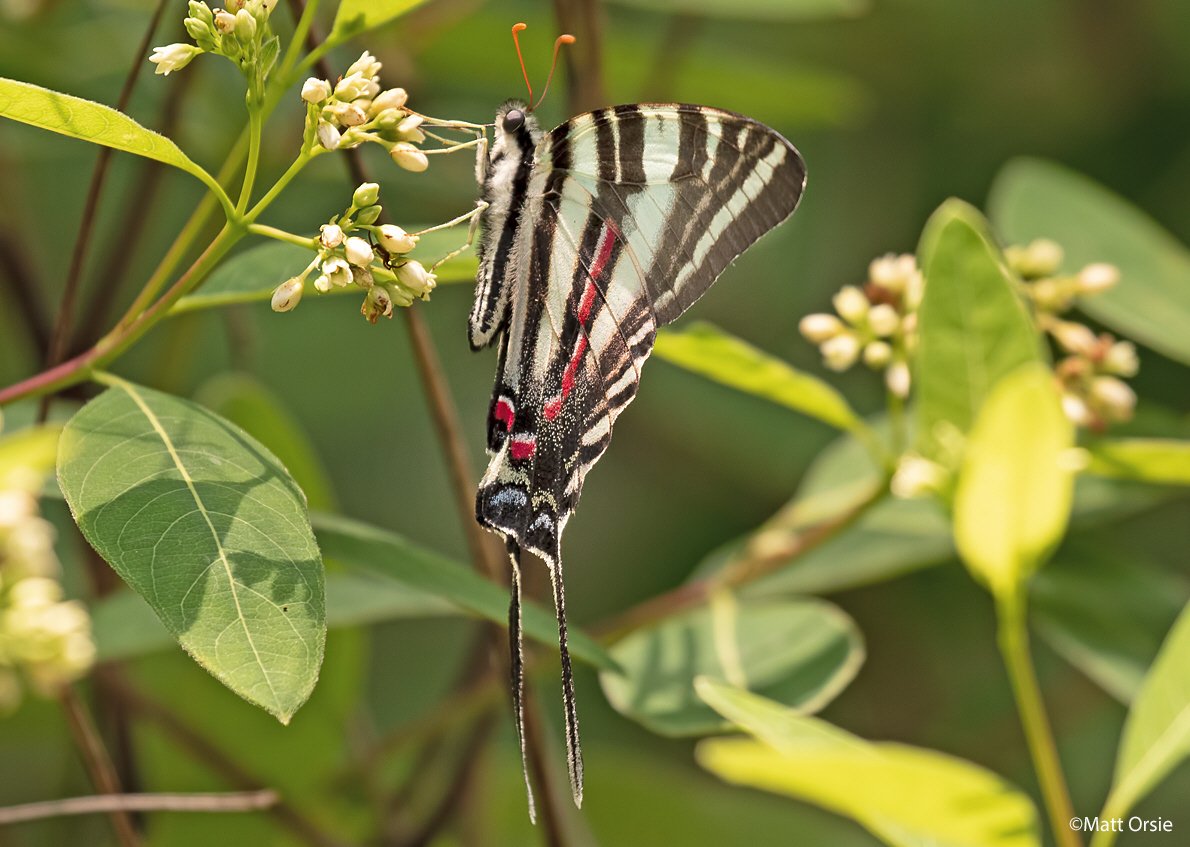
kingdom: Animalia
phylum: Arthropoda
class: Insecta
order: Lepidoptera
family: Papilionidae
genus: Protographium
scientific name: Protographium marcellus
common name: Zebra Swallowtail
